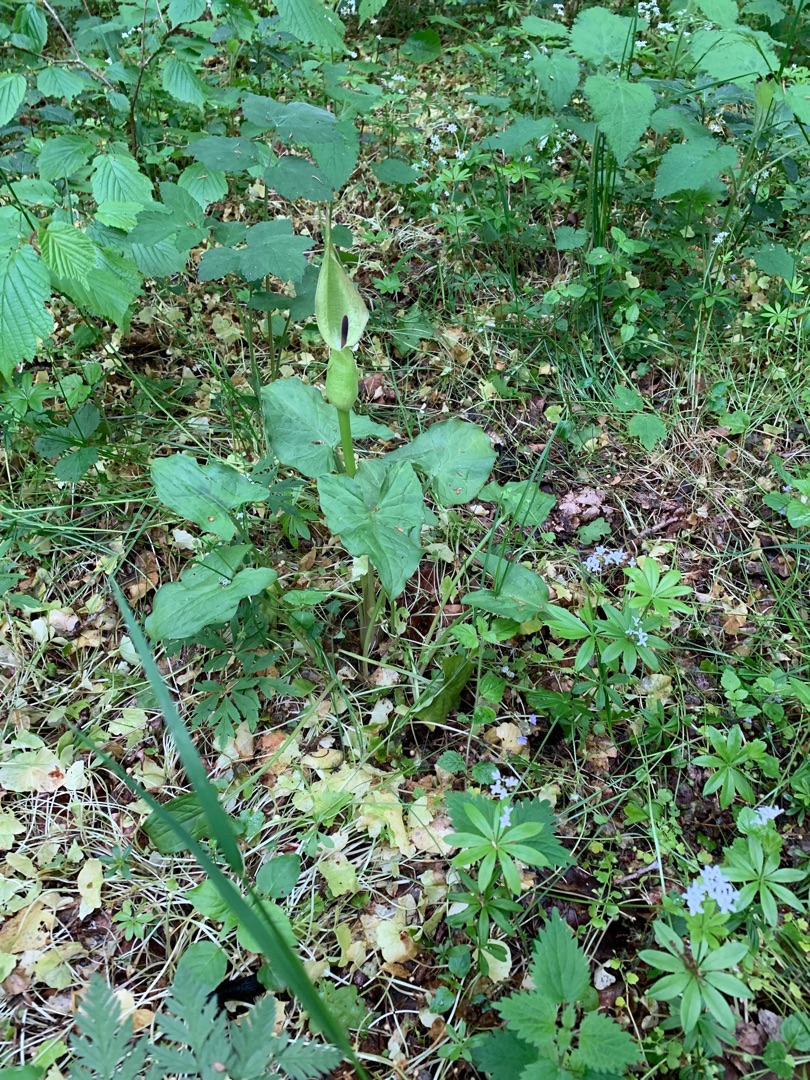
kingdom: Plantae
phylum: Tracheophyta
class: Liliopsida
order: Alismatales
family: Araceae
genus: Arum
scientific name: Arum cylindraceum
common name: Dansk arum
